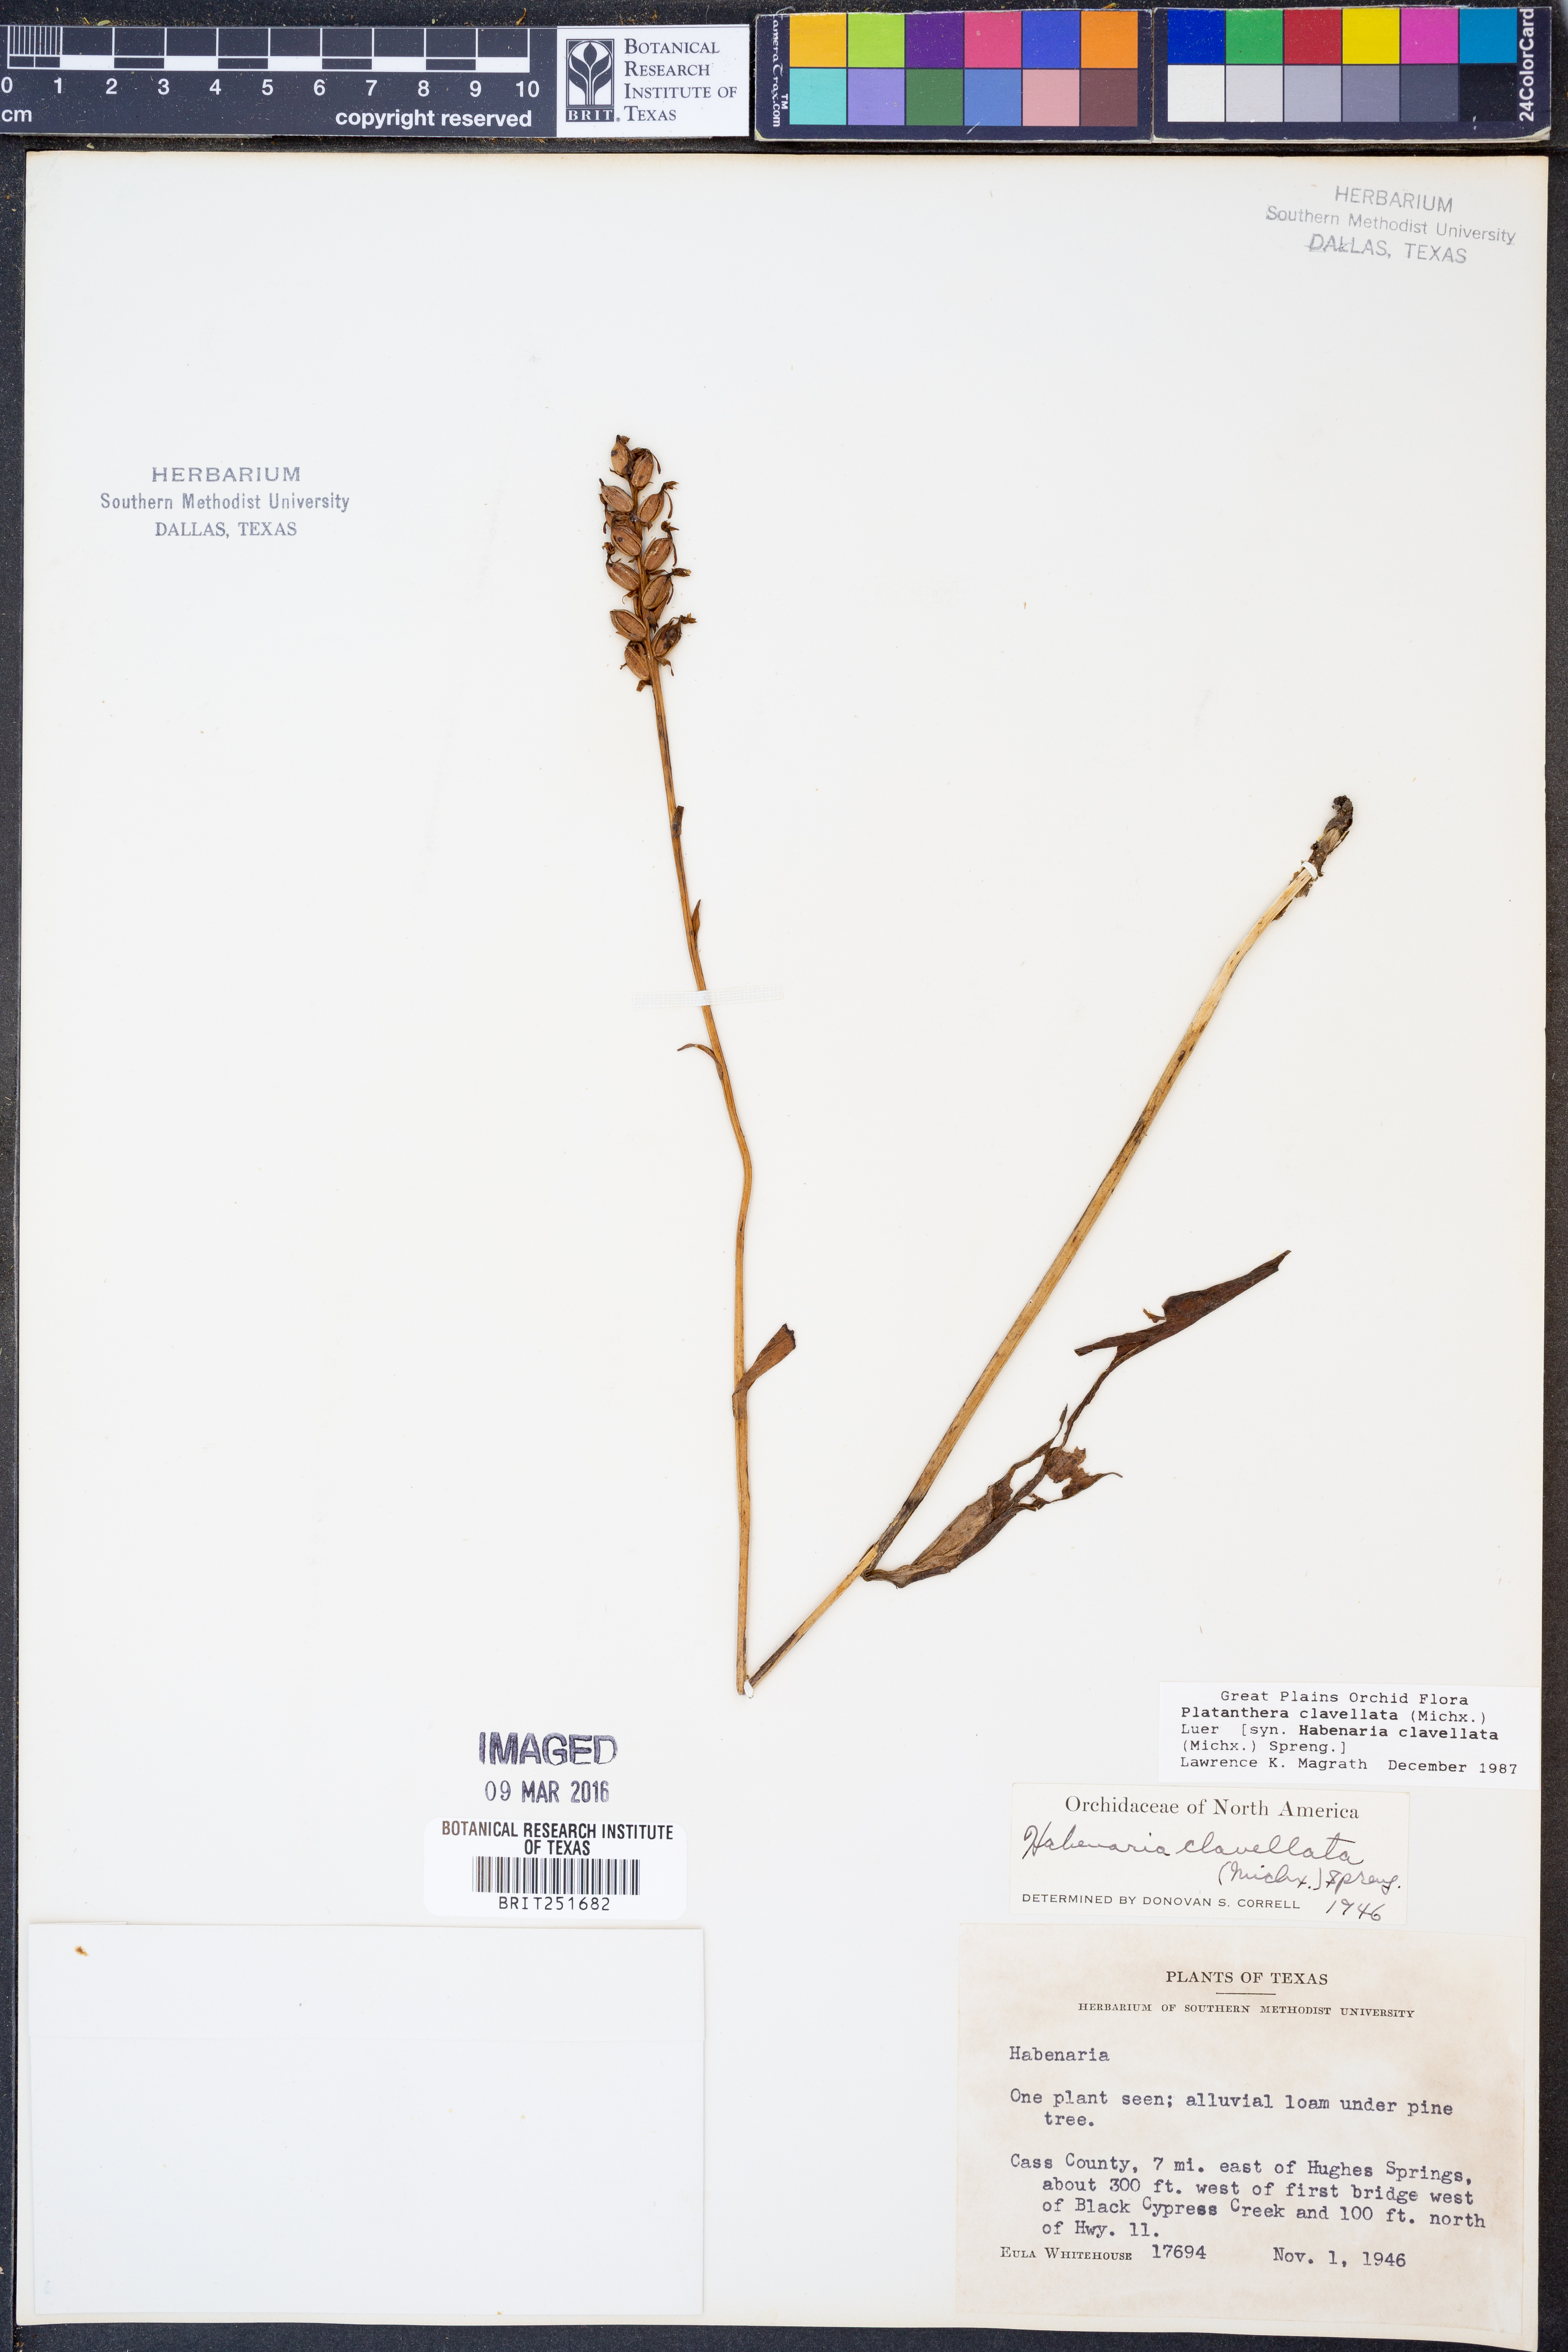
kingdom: Plantae
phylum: Tracheophyta
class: Liliopsida
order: Asparagales
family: Orchidaceae
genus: Platanthera
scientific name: Platanthera clavellata
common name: Club-spur orchid
